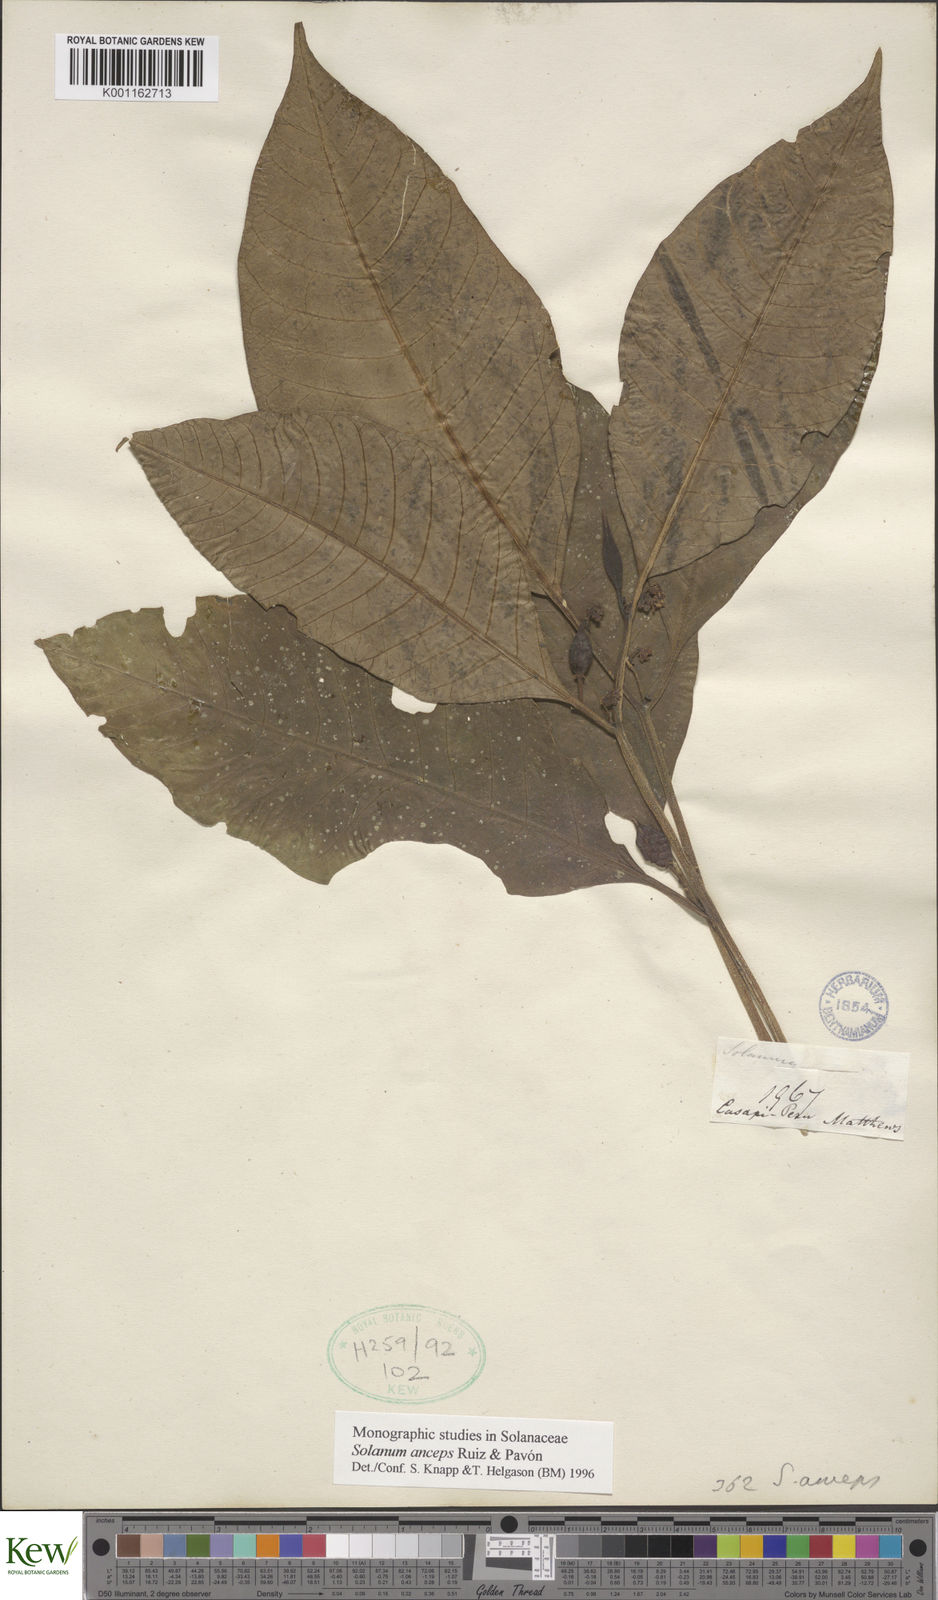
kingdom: Plantae
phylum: Tracheophyta
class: Magnoliopsida
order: Solanales
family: Solanaceae
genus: Solanum
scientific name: Solanum anceps
